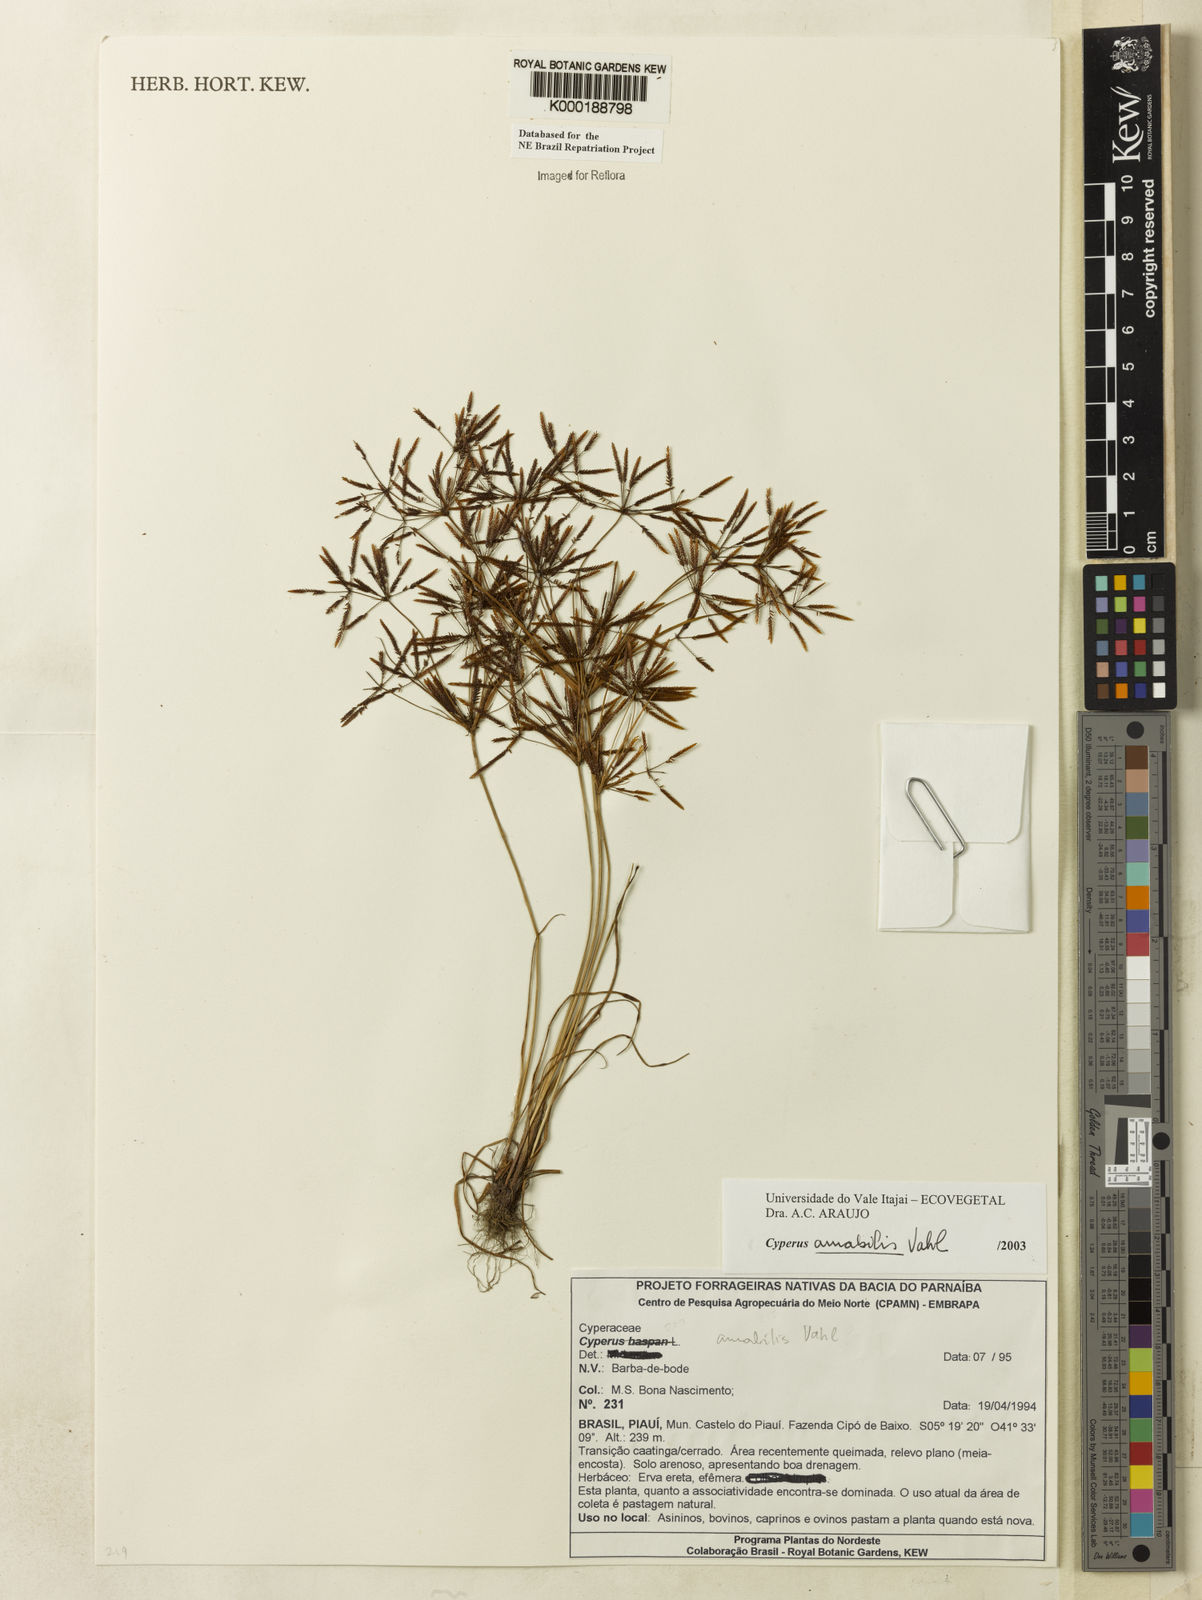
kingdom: Plantae
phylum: Tracheophyta
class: Liliopsida
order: Poales
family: Cyperaceae
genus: Cyperus
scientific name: Cyperus amabilis
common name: Foothill flat sedge
